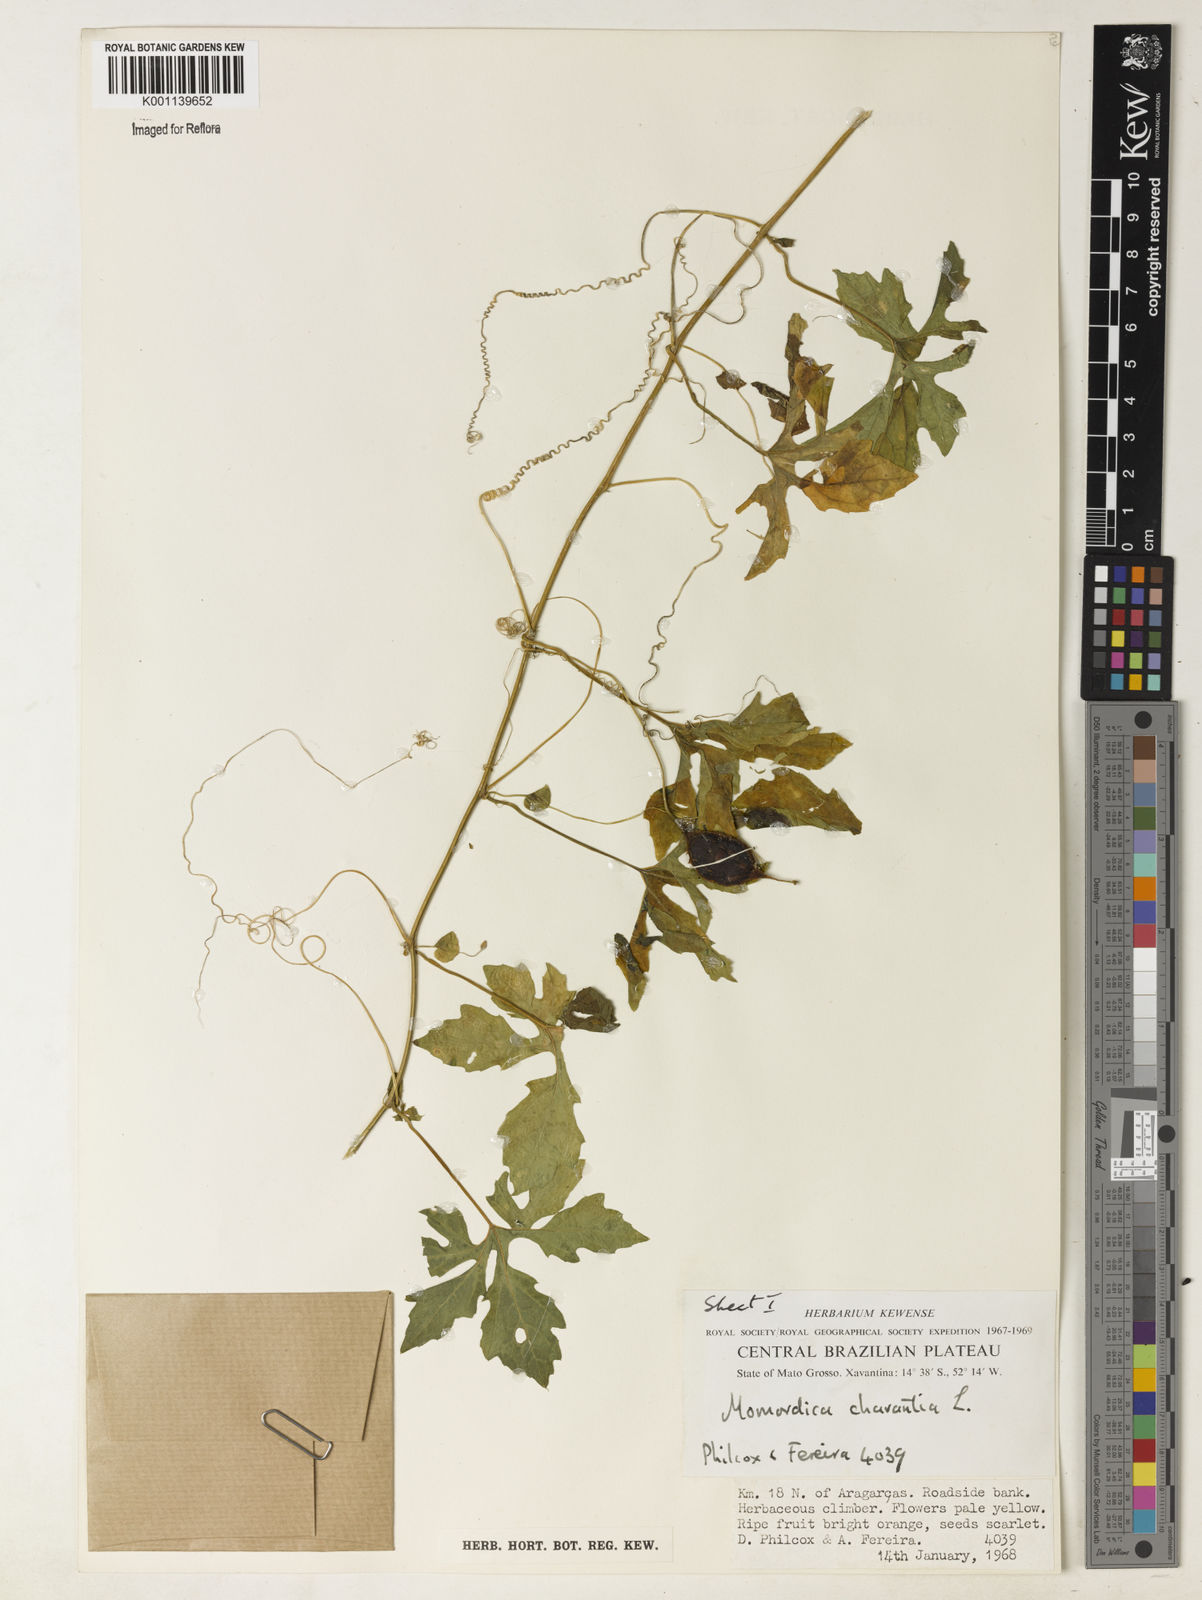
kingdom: Plantae
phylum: Tracheophyta
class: Magnoliopsida
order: Cucurbitales
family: Cucurbitaceae
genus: Momordica
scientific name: Momordica charantia
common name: Balsampear
